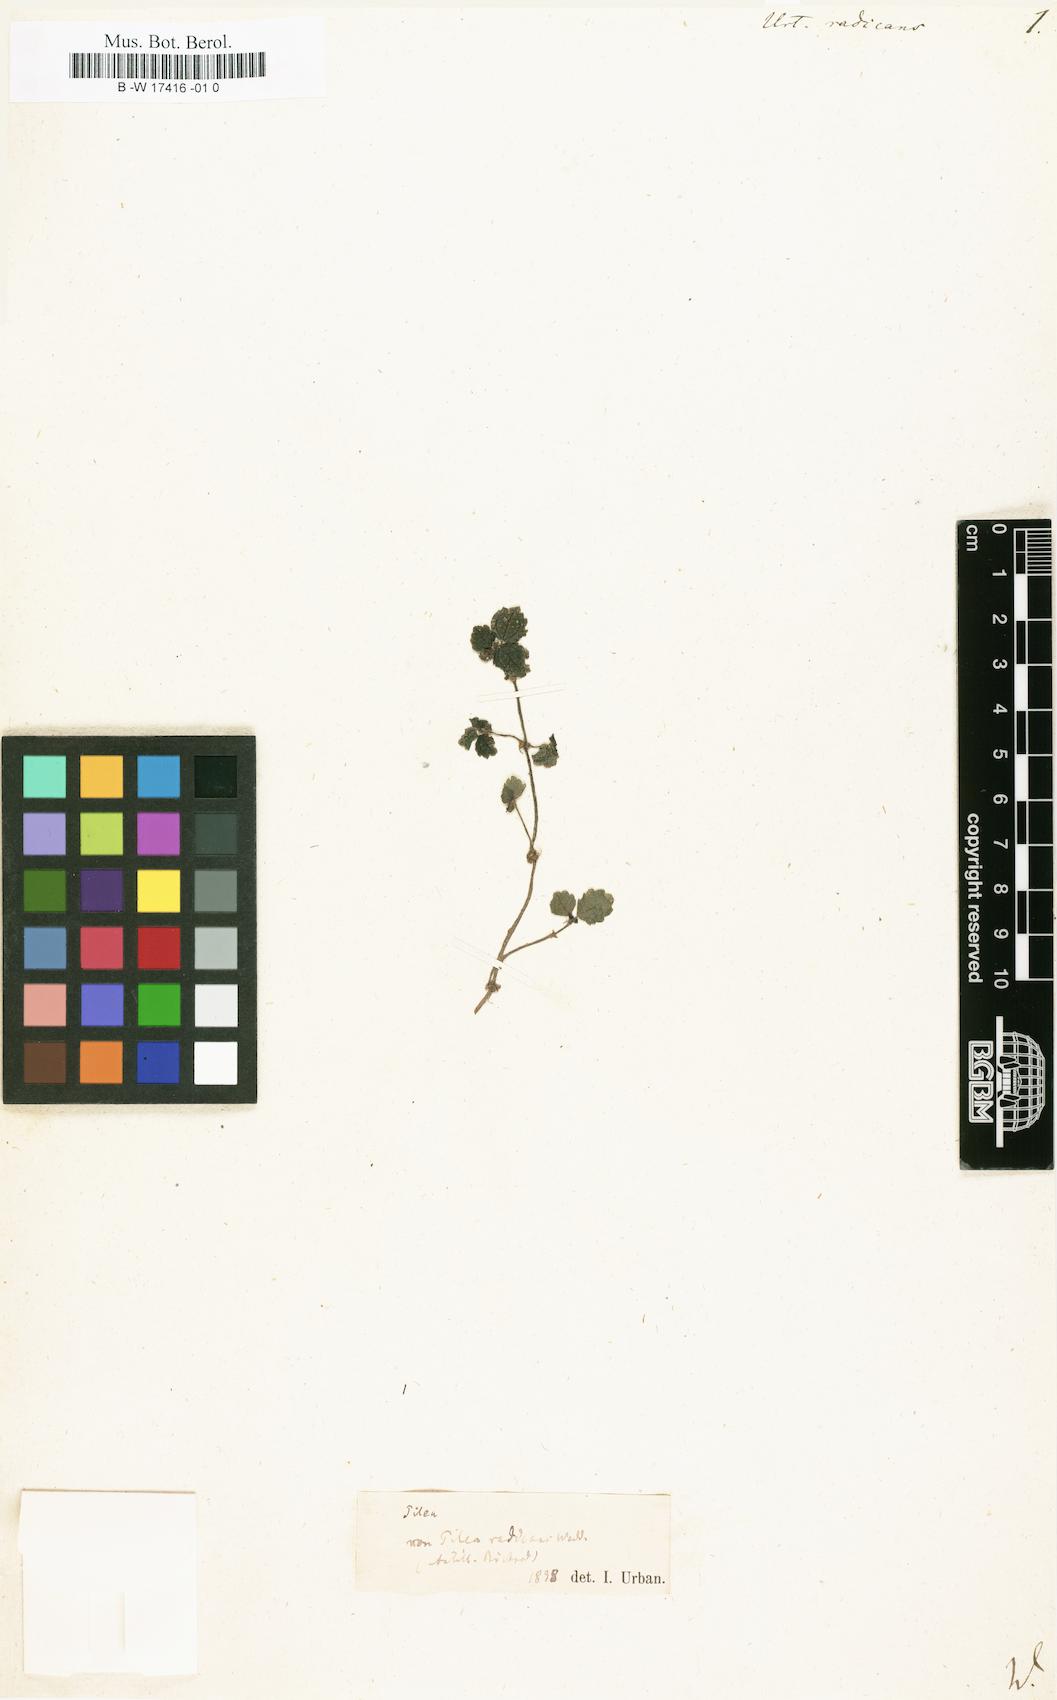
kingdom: Plantae
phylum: Tracheophyta
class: Magnoliopsida
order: Rosales
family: Urticaceae
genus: Pilea
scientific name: Pilea radicans
